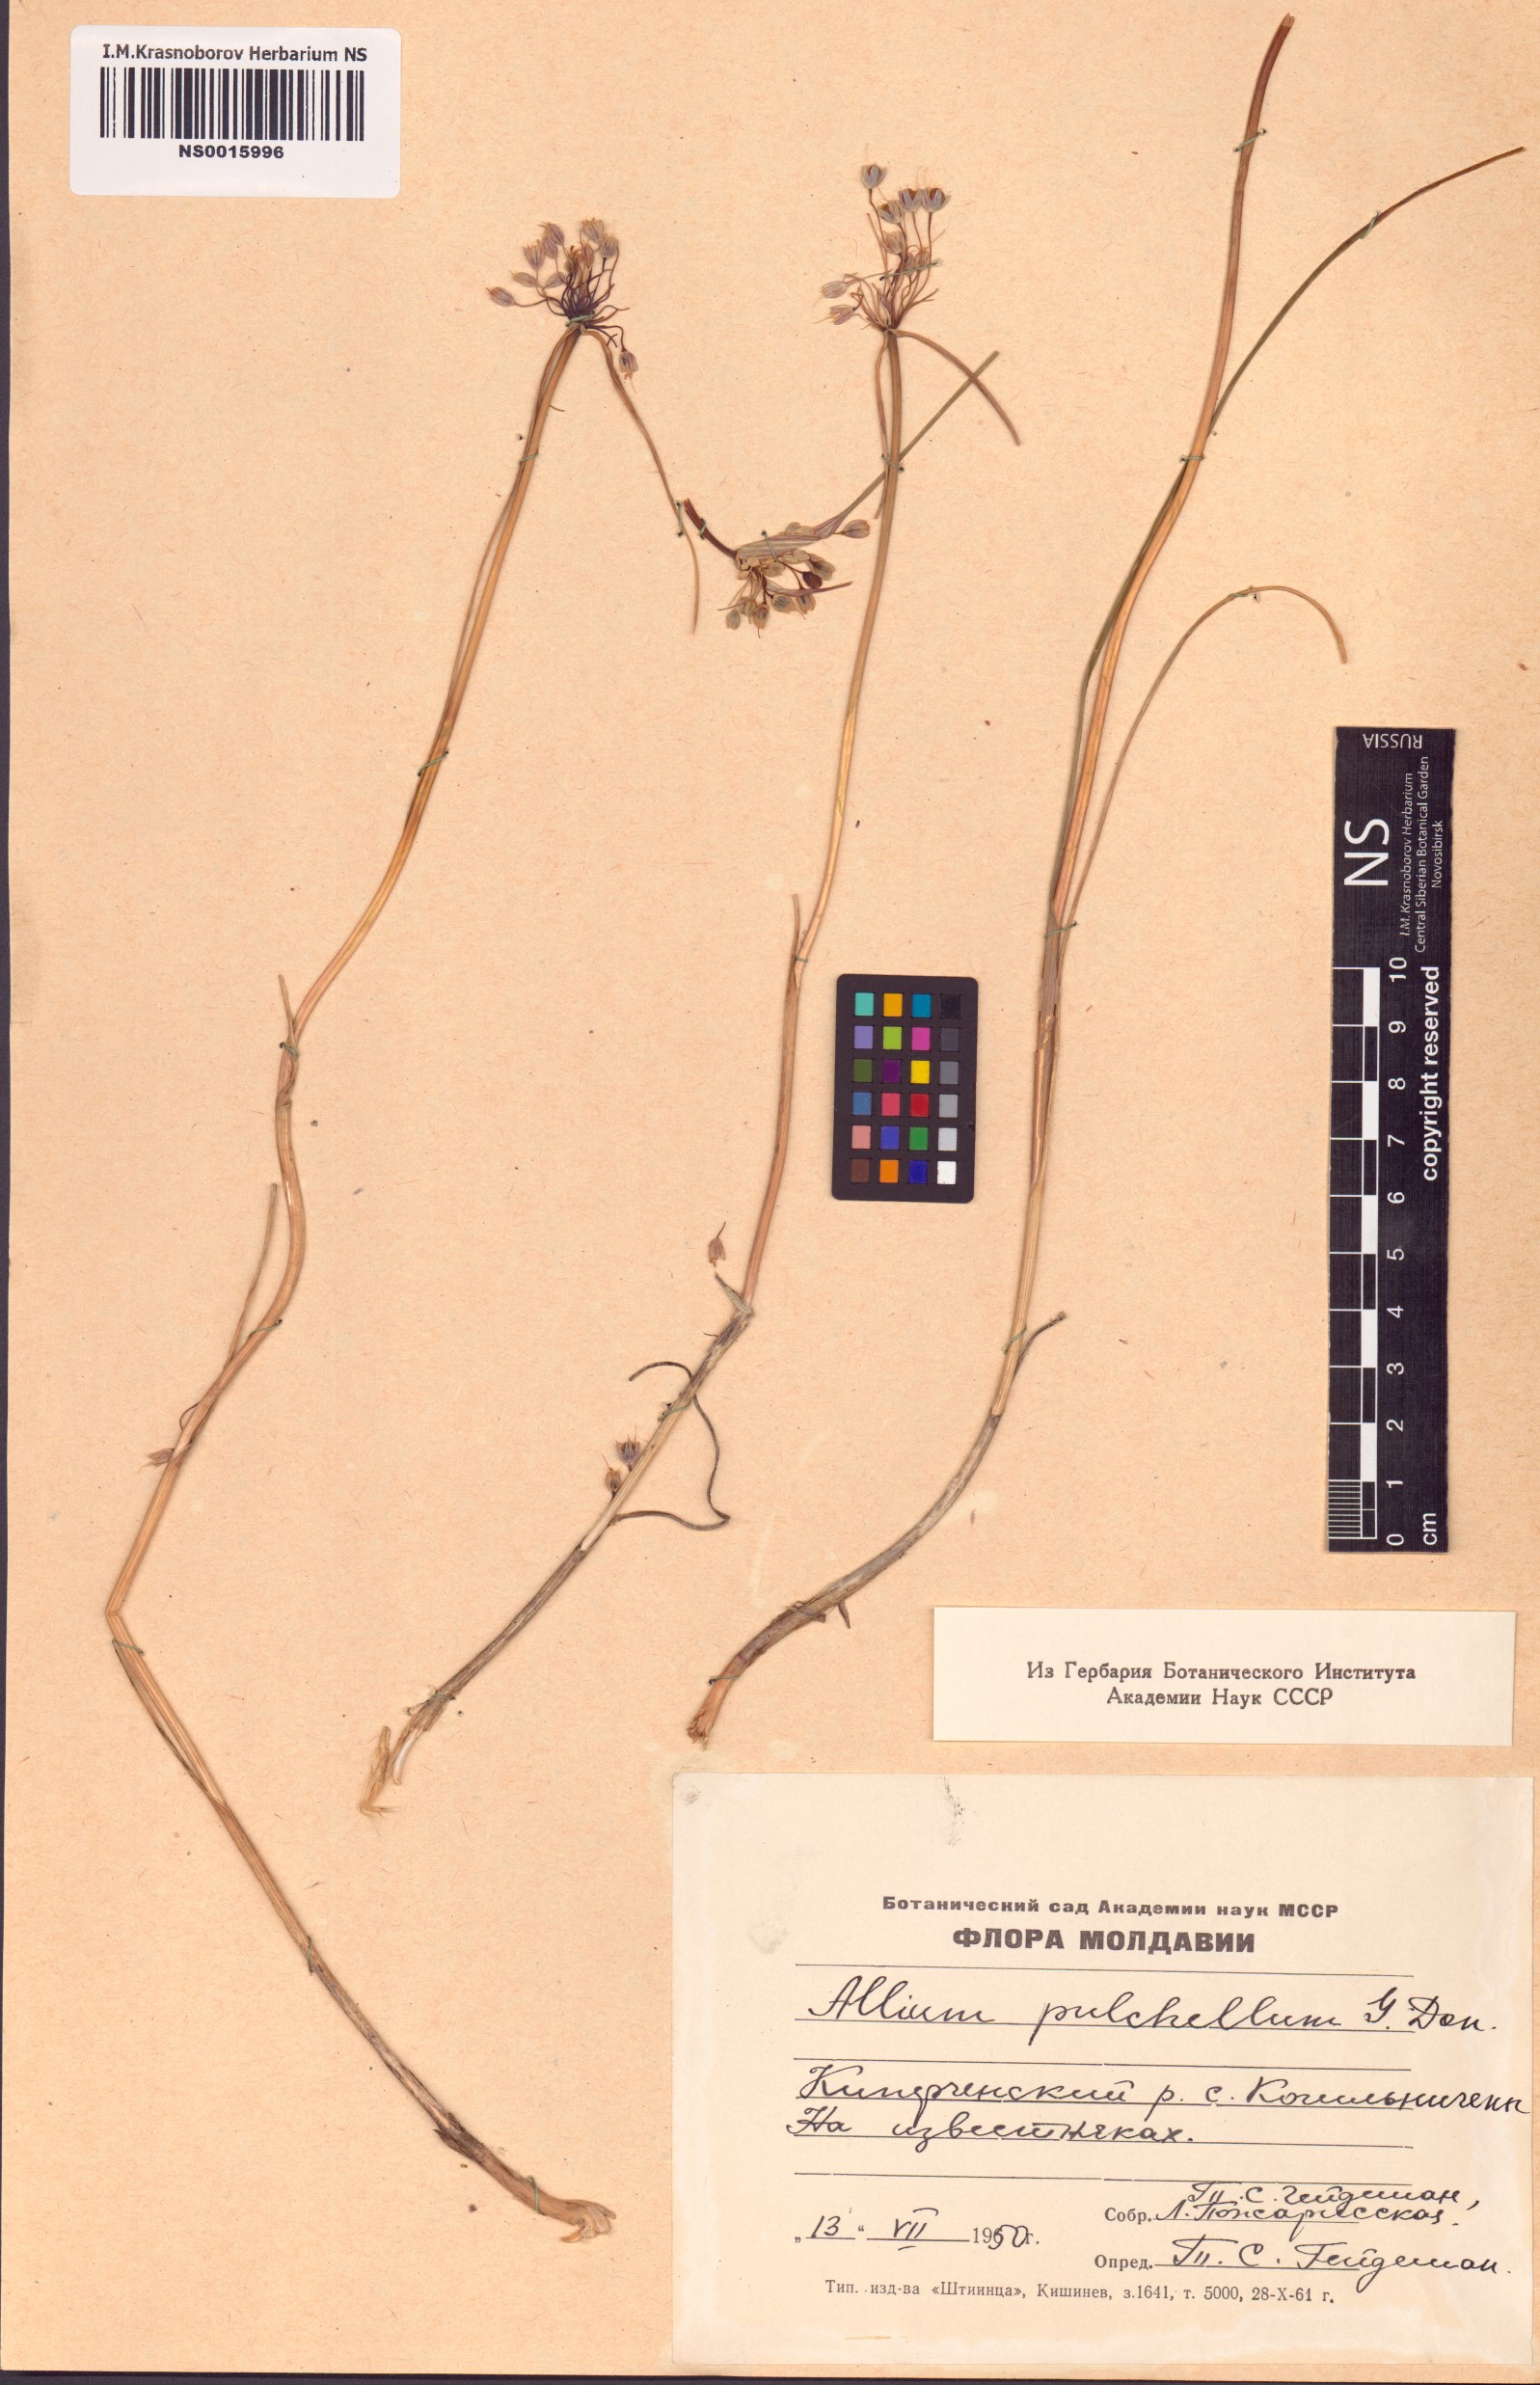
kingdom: Plantae
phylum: Tracheophyta
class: Liliopsida
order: Asparagales
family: Amaryllidaceae
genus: Allium
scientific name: Allium coloratum
